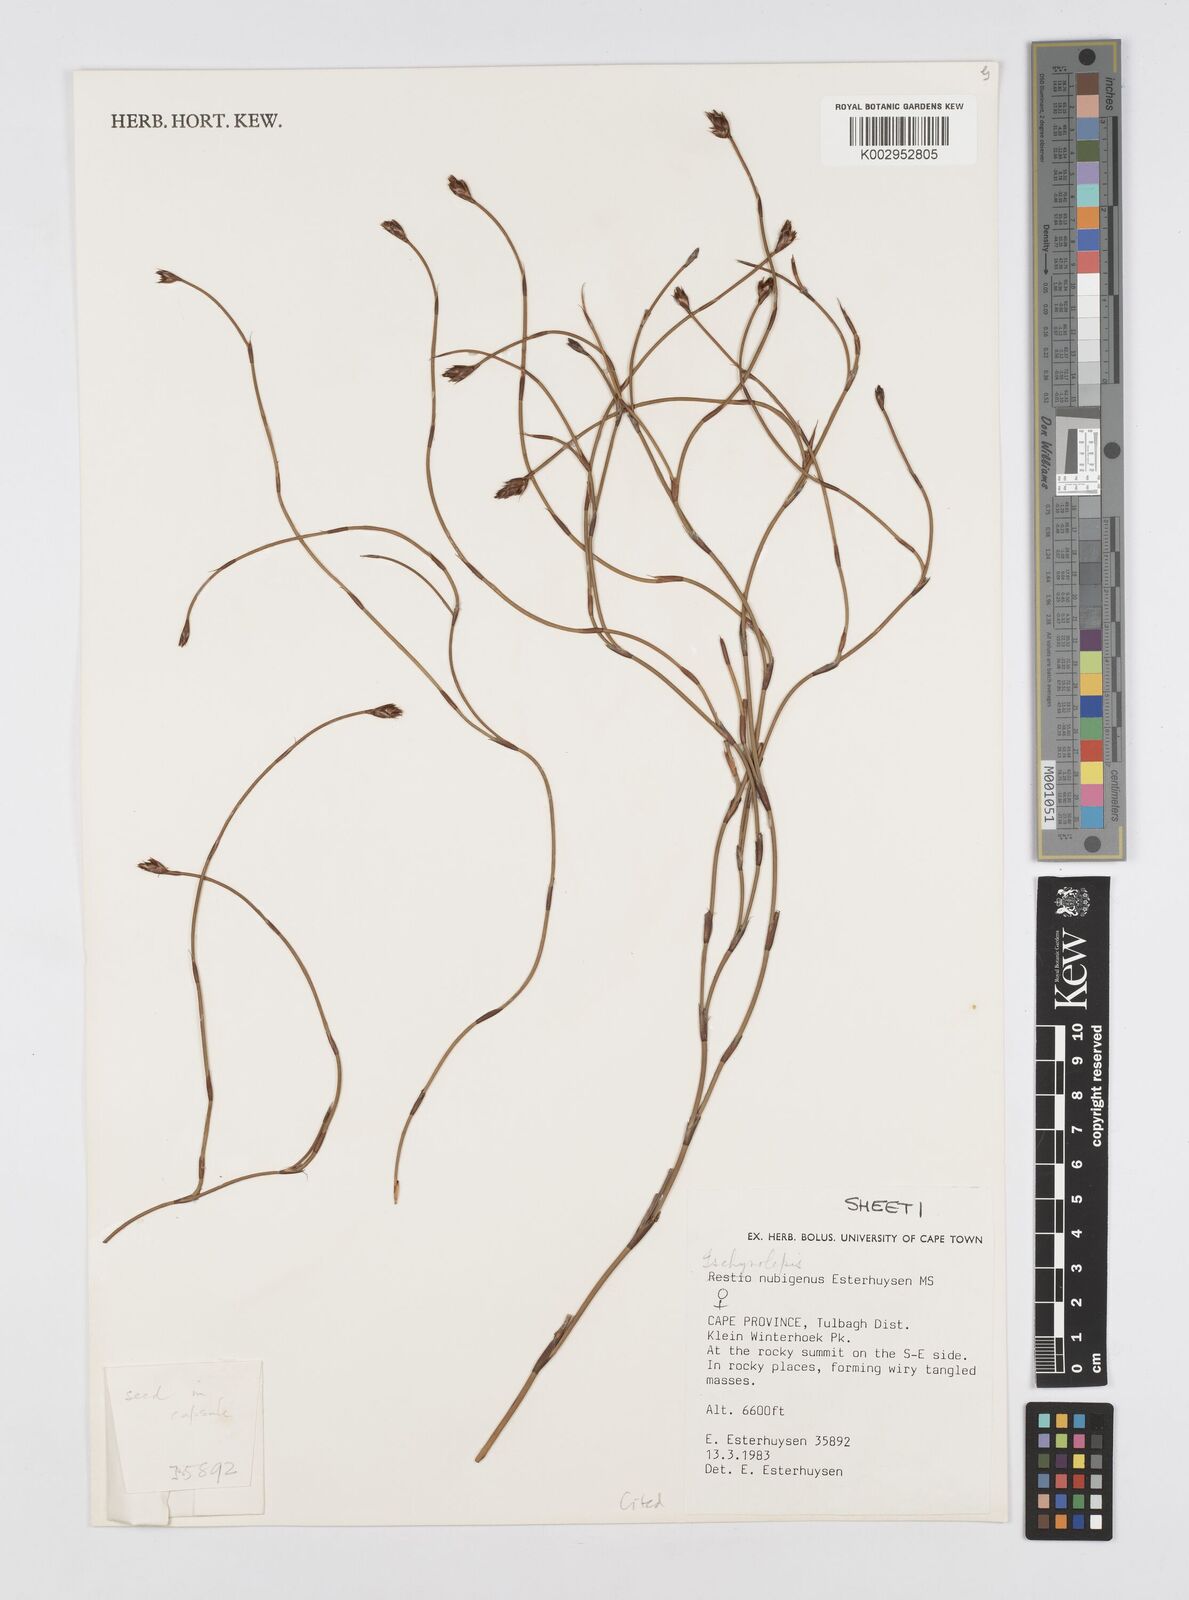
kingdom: Plantae
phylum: Tracheophyta
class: Liliopsida
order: Poales
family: Restionaceae
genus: Restio
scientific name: Restio nubigenus
